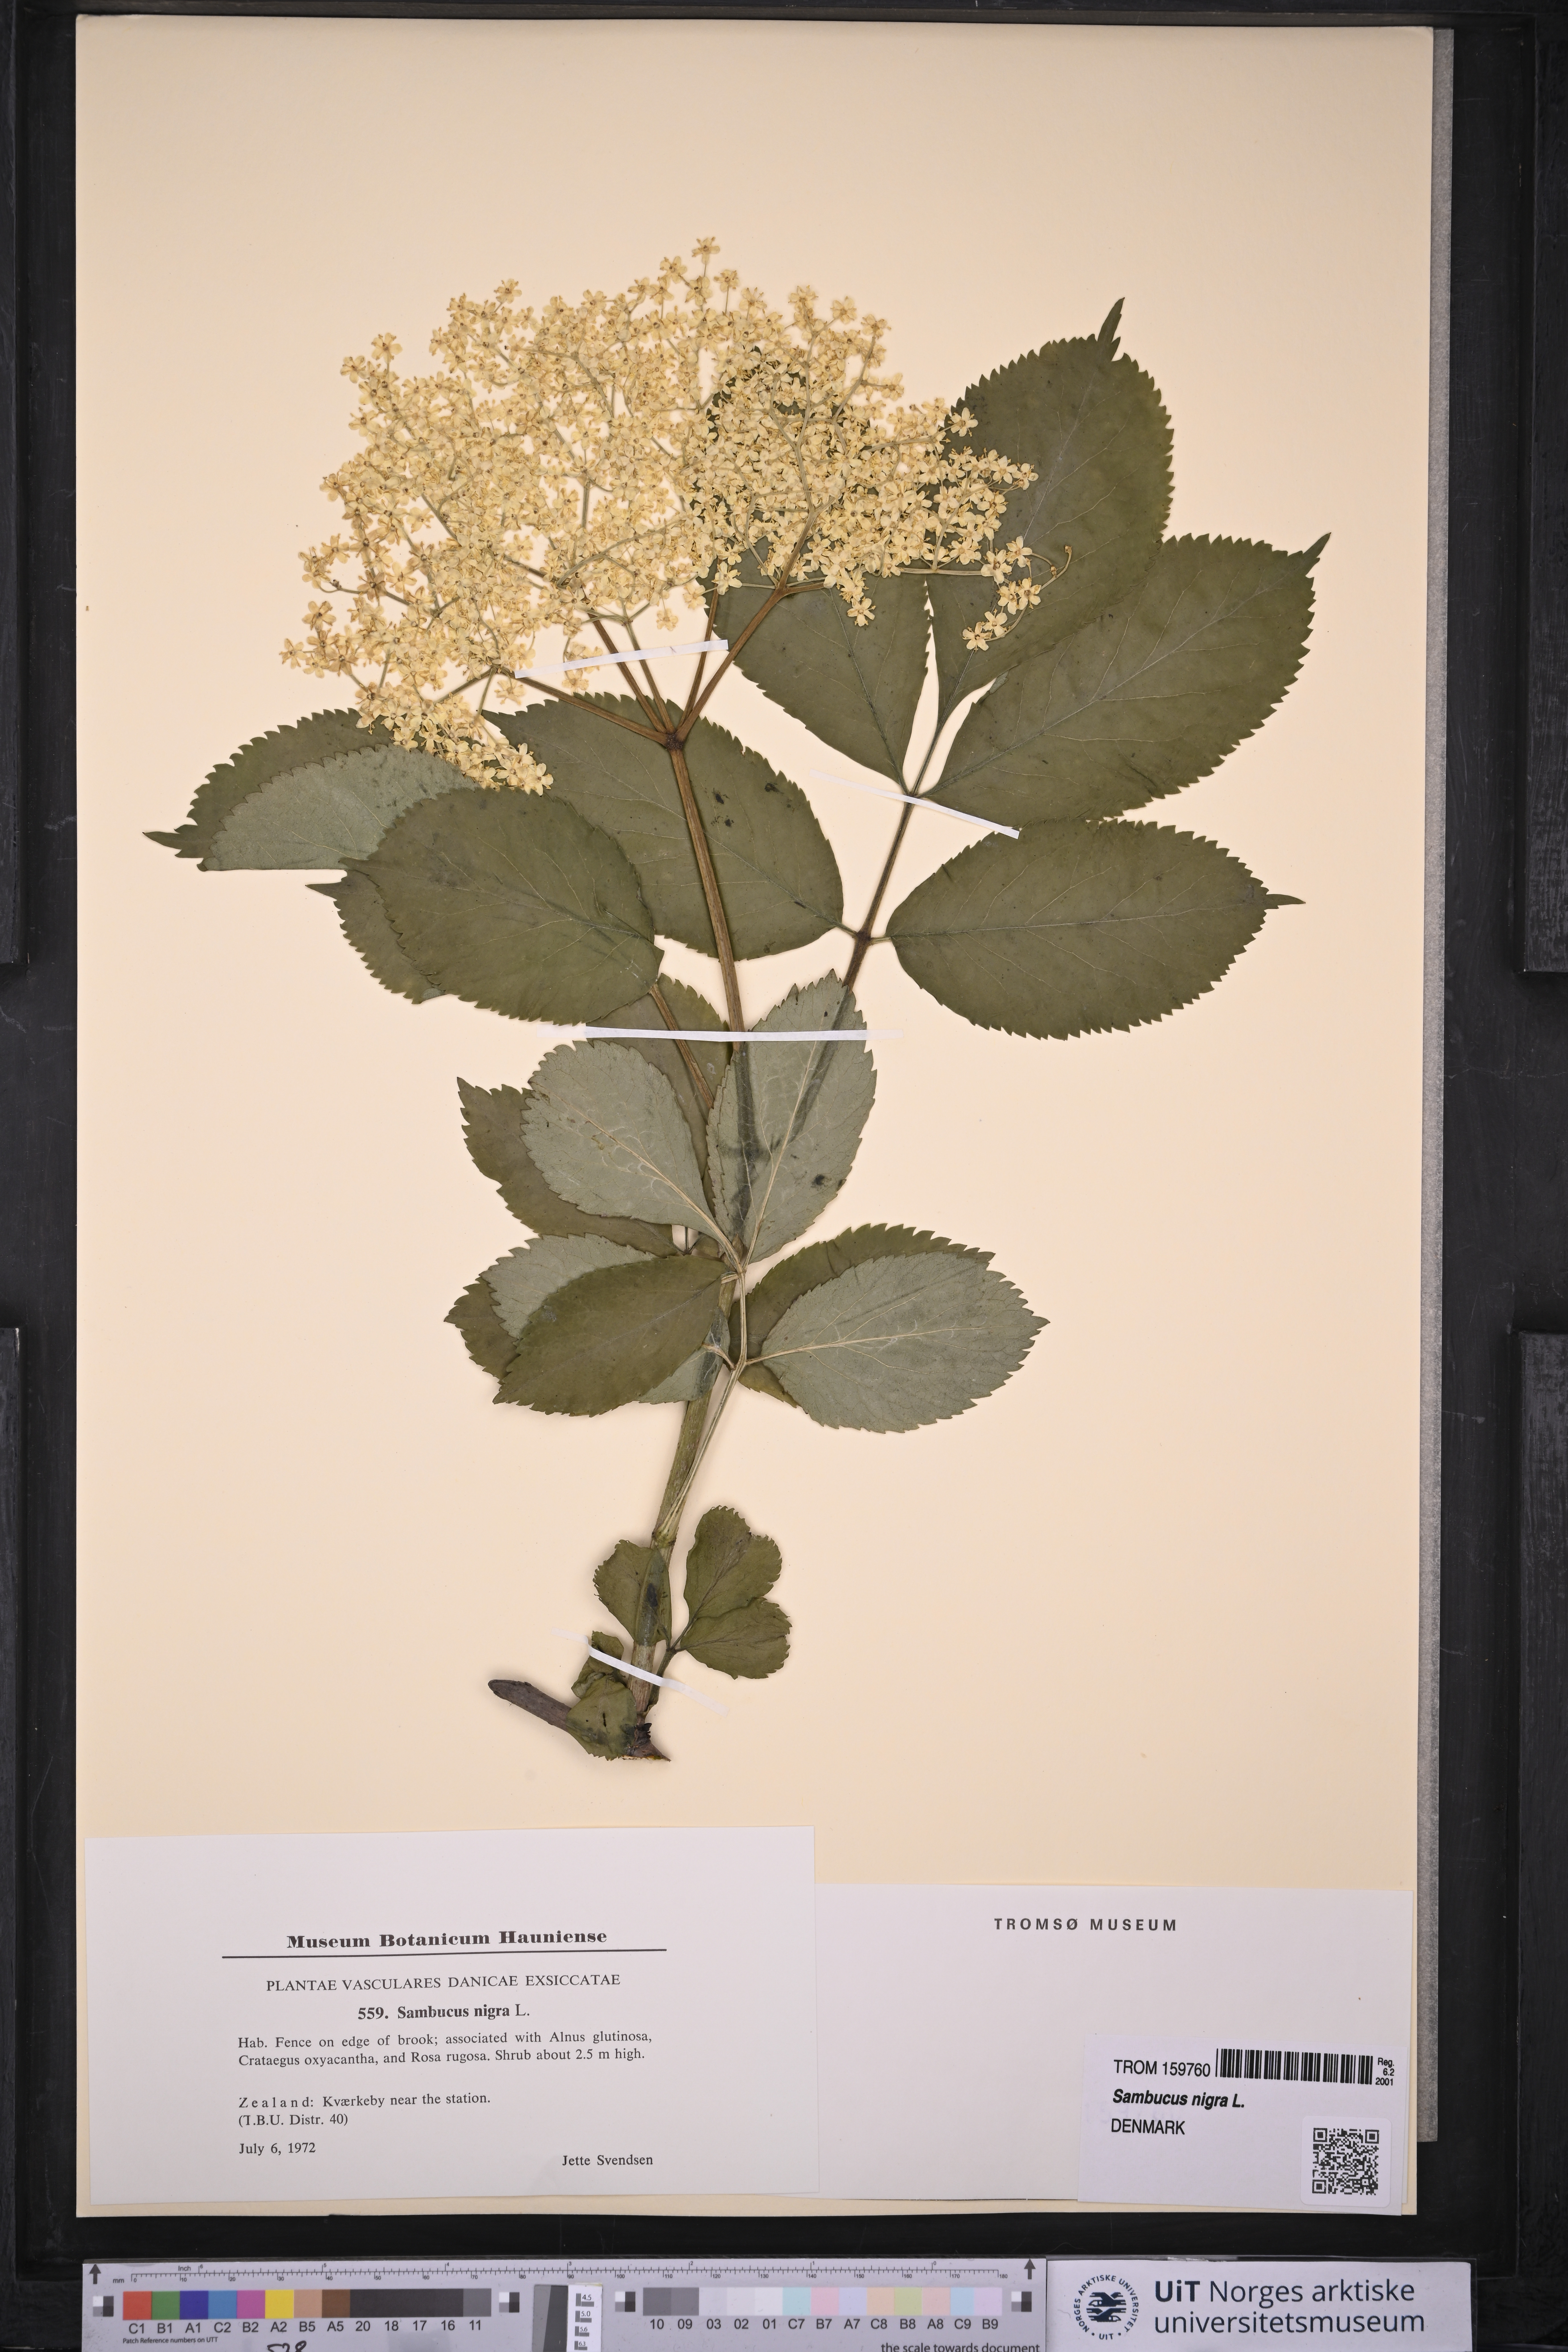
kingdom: Plantae
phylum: Tracheophyta
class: Magnoliopsida
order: Dipsacales
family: Viburnaceae
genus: Sambucus
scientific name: Sambucus nigra
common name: Elder
